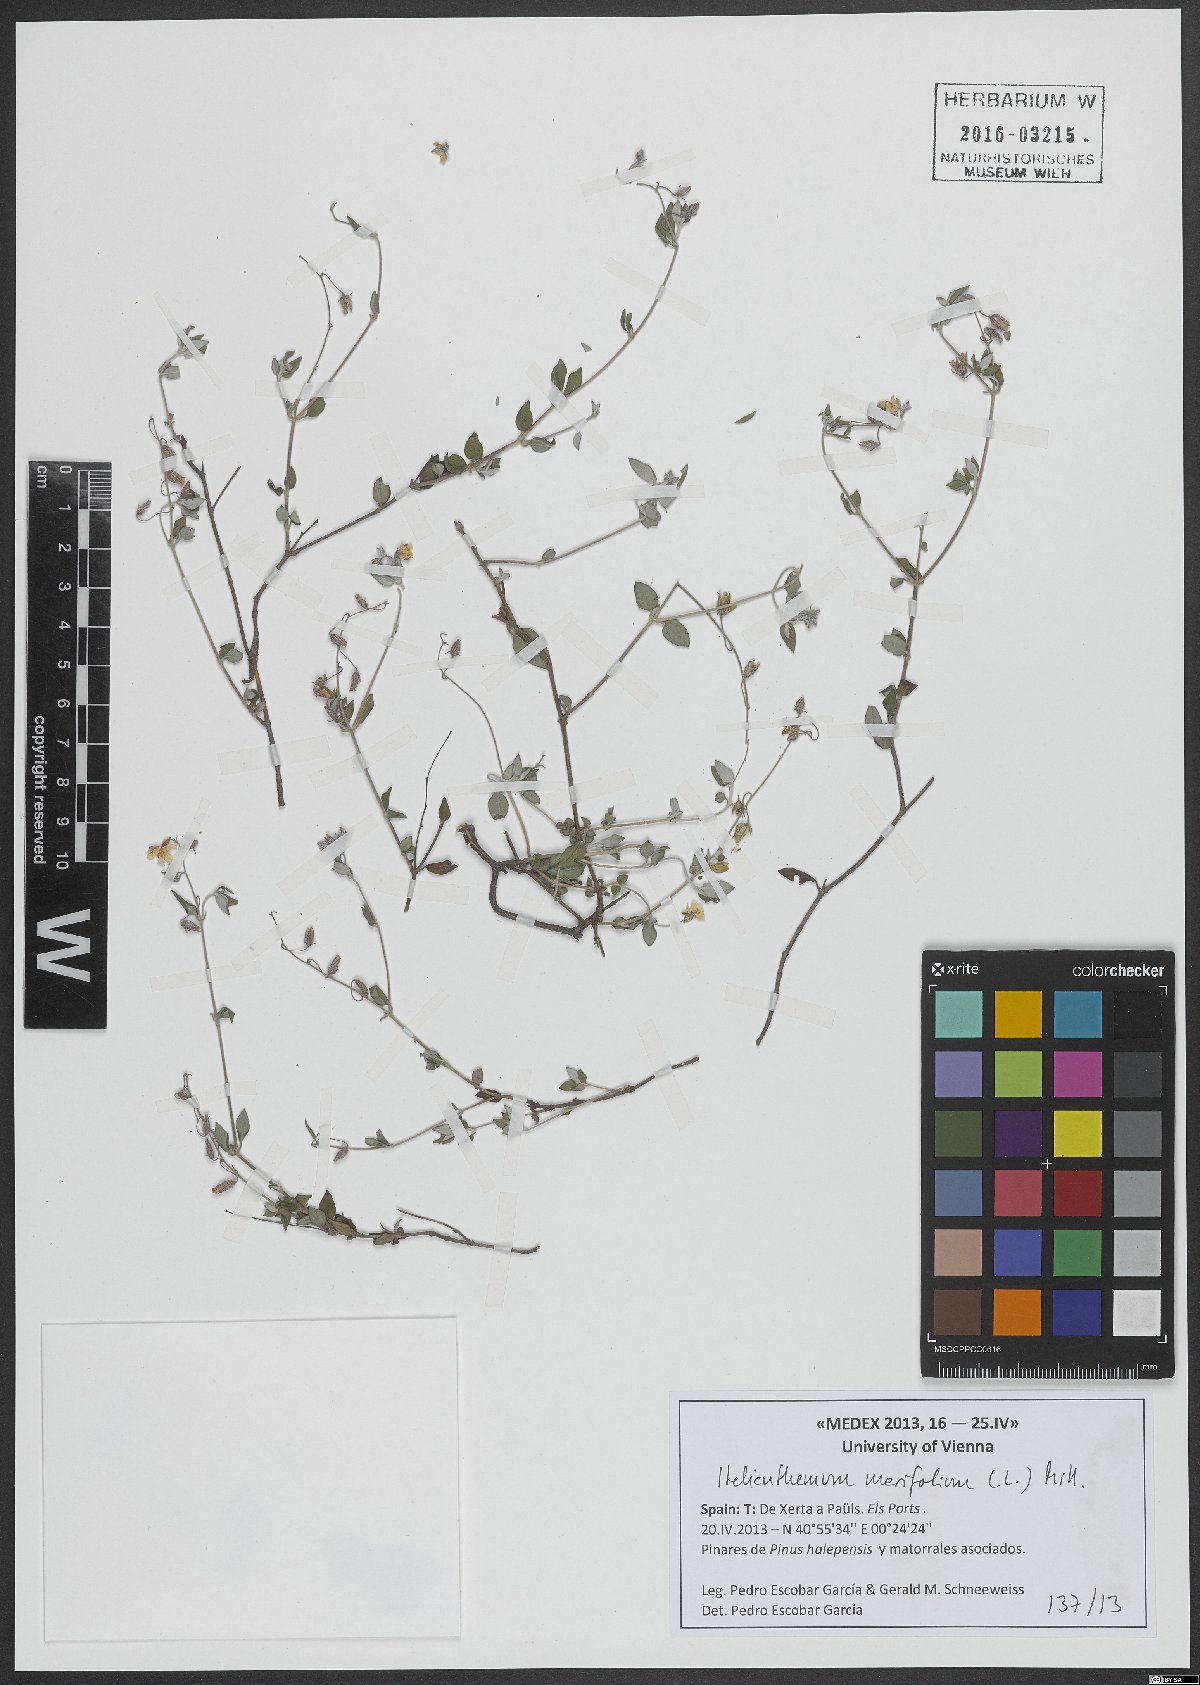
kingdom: Plantae
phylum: Tracheophyta
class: Magnoliopsida
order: Malvales
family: Cistaceae
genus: Helianthemum
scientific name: Helianthemum marifolium
